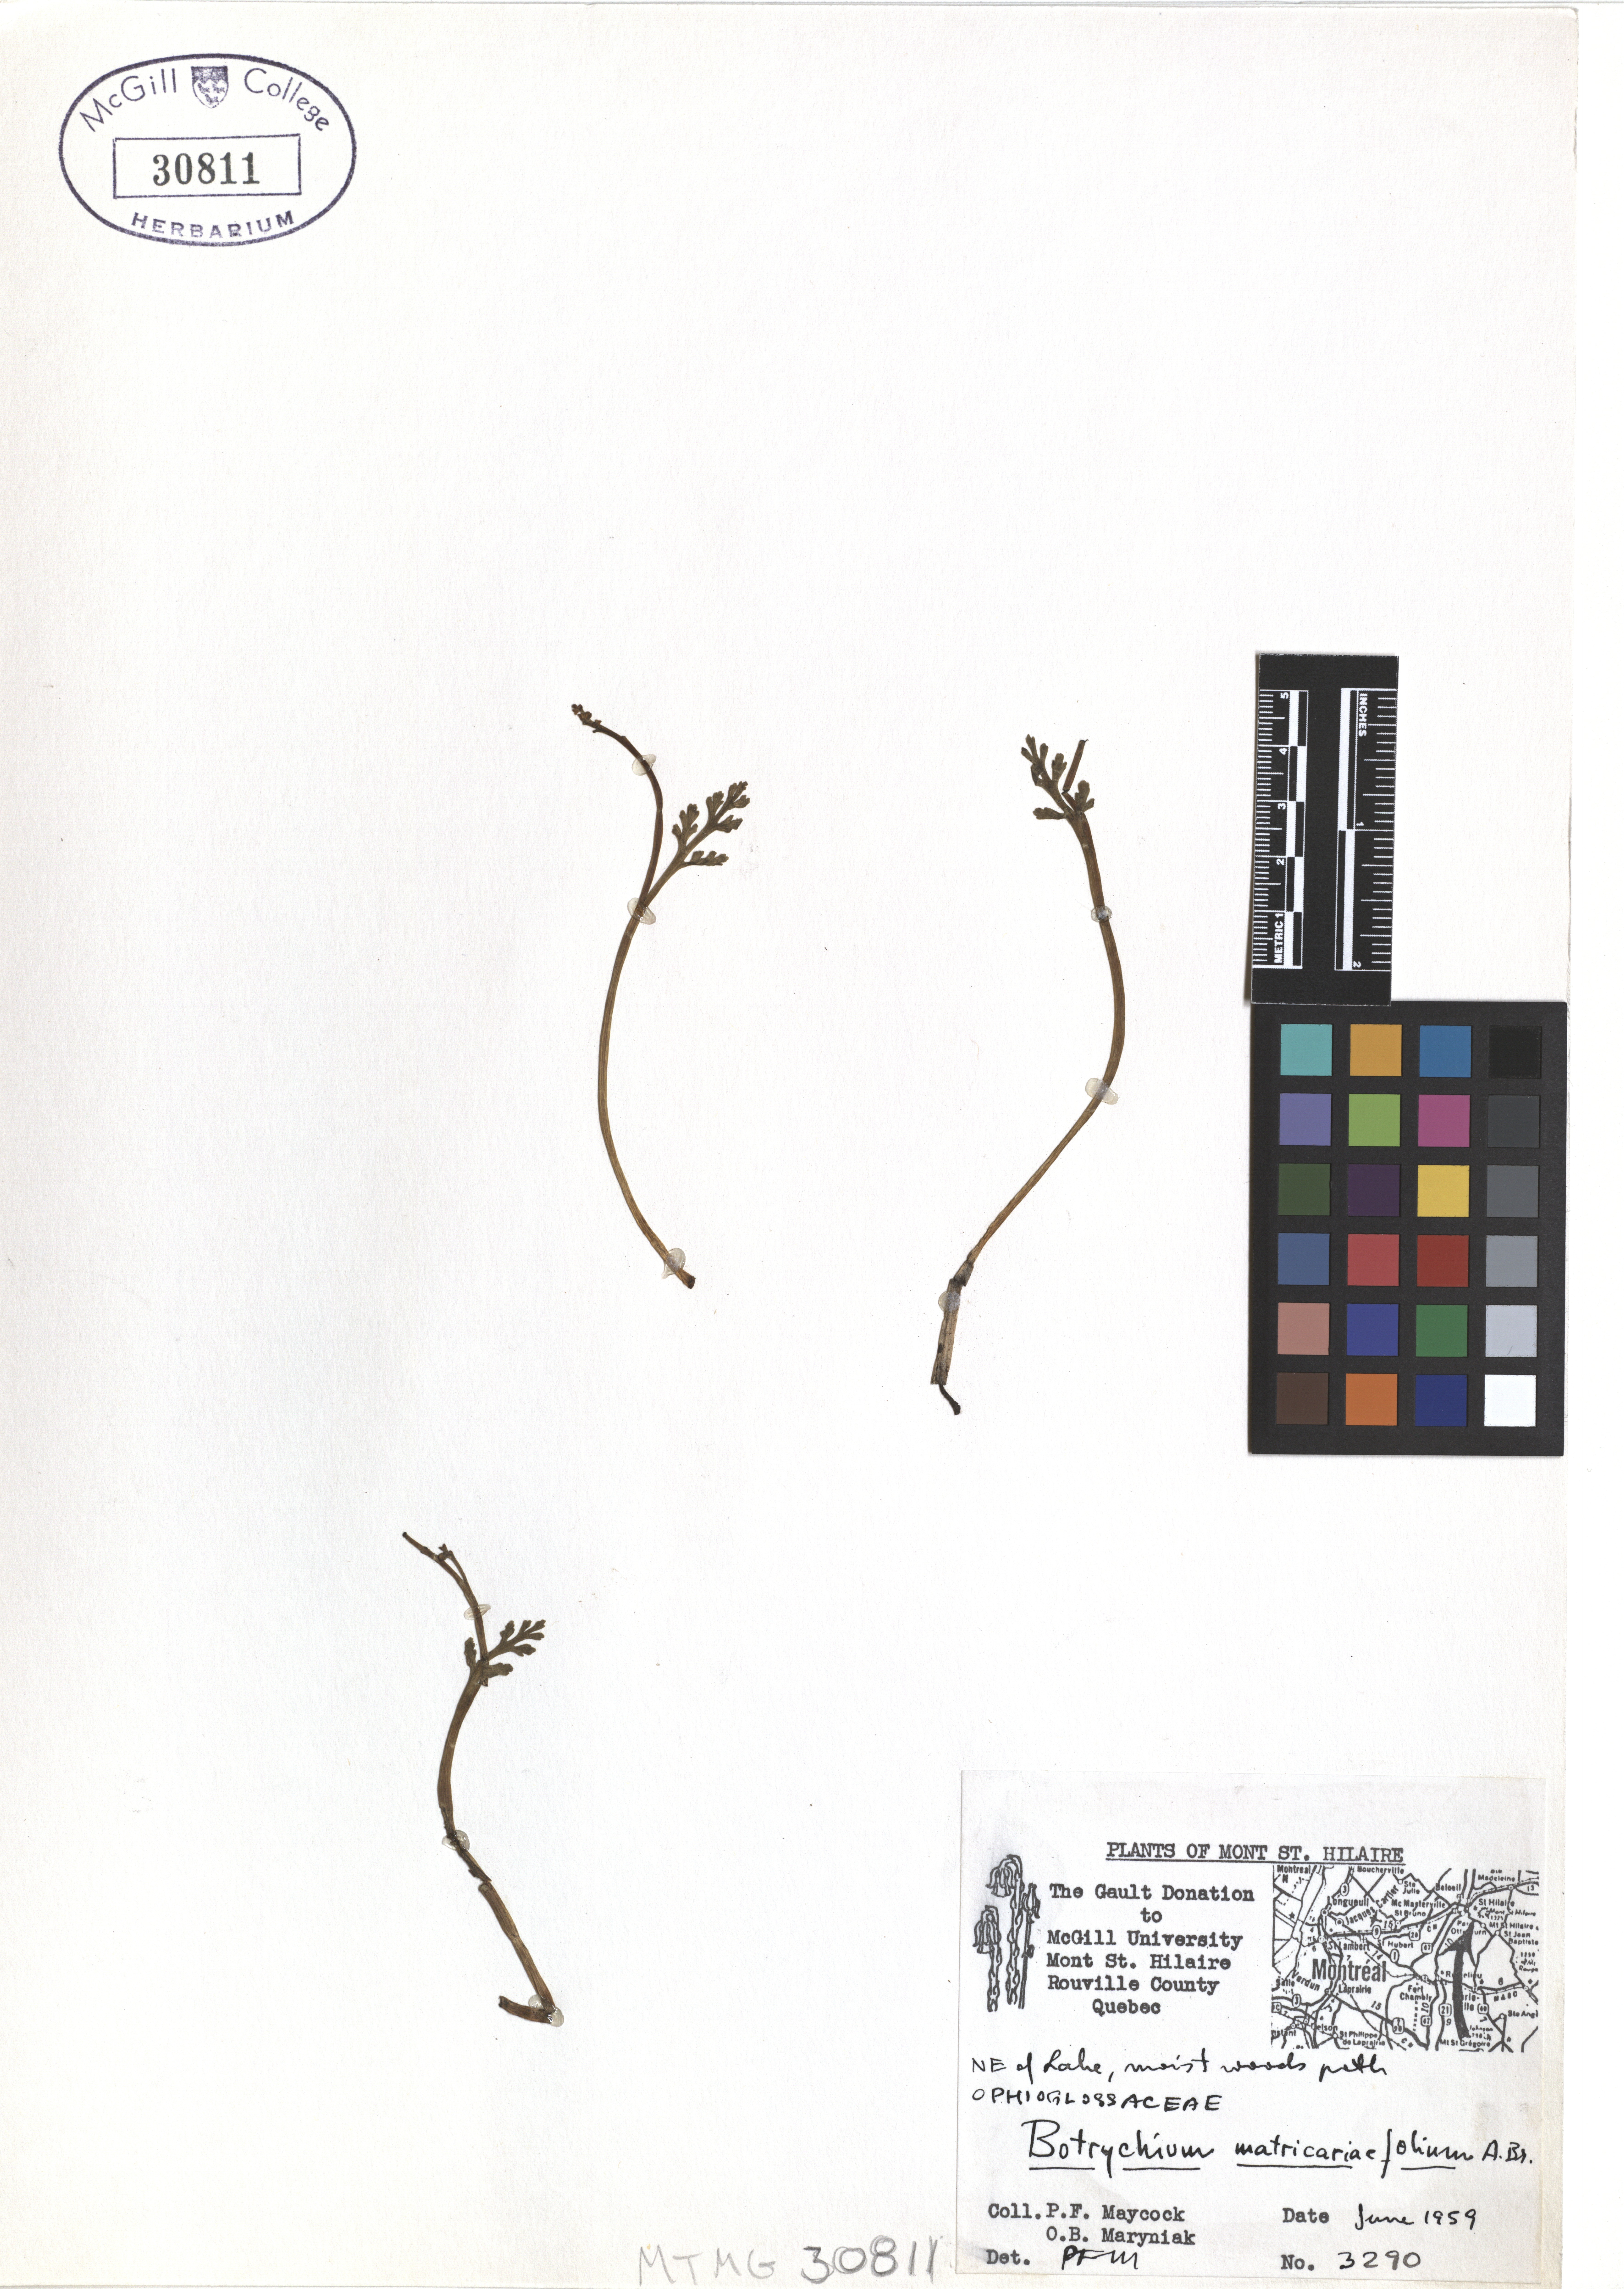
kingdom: Plantae
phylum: Tracheophyta
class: Polypodiopsida
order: Ophioglossales
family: Ophioglossaceae
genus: Botrychium
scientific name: Botrychium matricariifolium
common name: Branched moonwort
